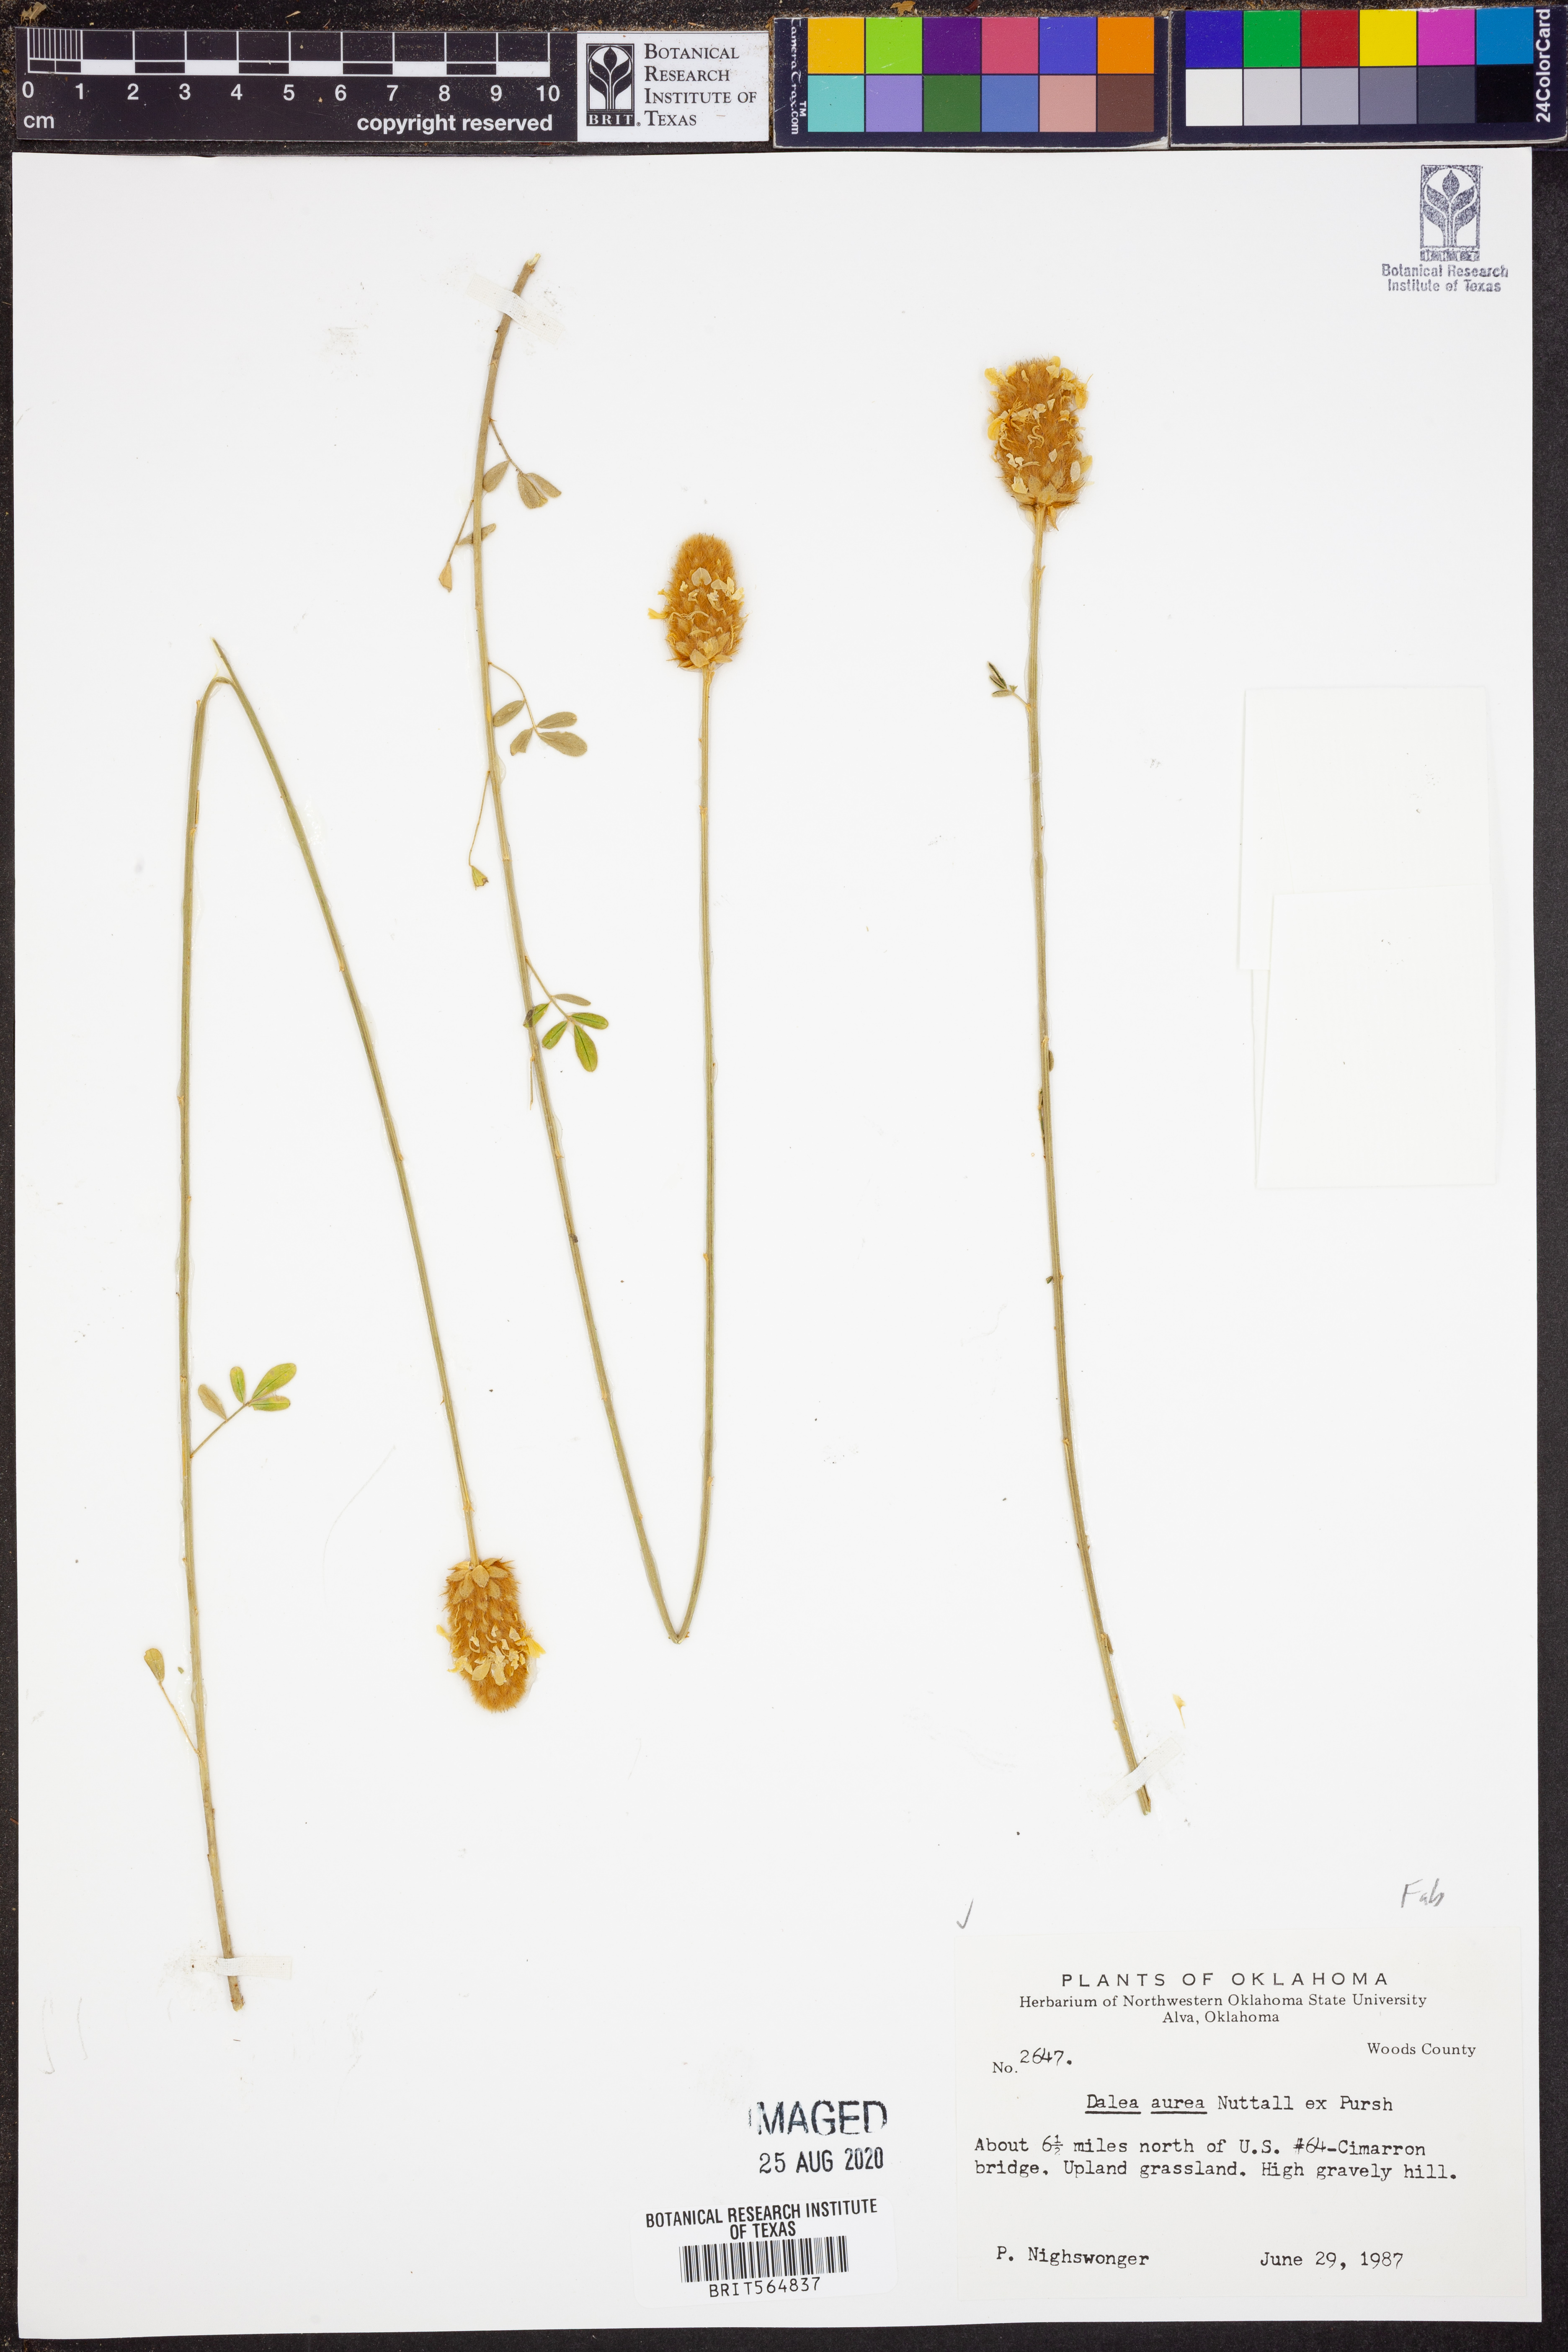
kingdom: Plantae
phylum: Tracheophyta
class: Magnoliopsida
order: Fabales
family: Fabaceae
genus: Dalea
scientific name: Dalea aurea
